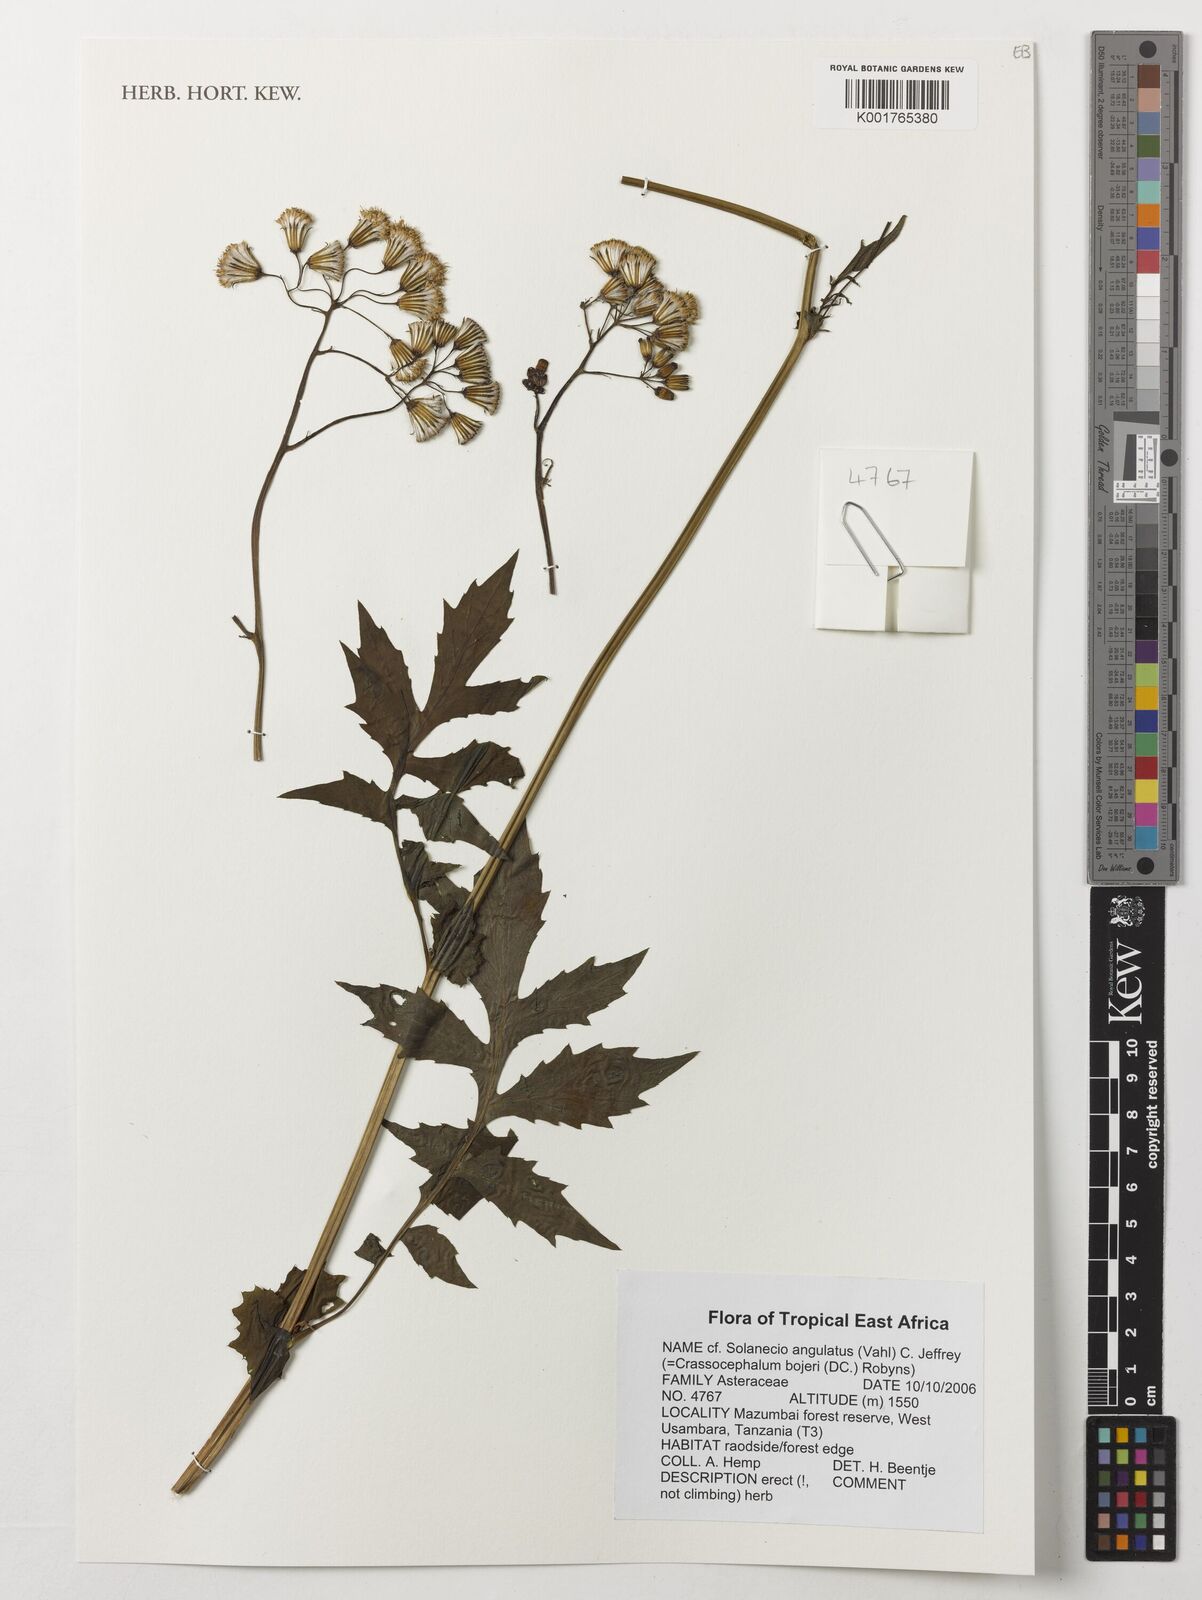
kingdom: Plantae
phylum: Tracheophyta
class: Magnoliopsida
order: Asterales
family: Asteraceae
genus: Solanecio
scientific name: Solanecio angulatus
